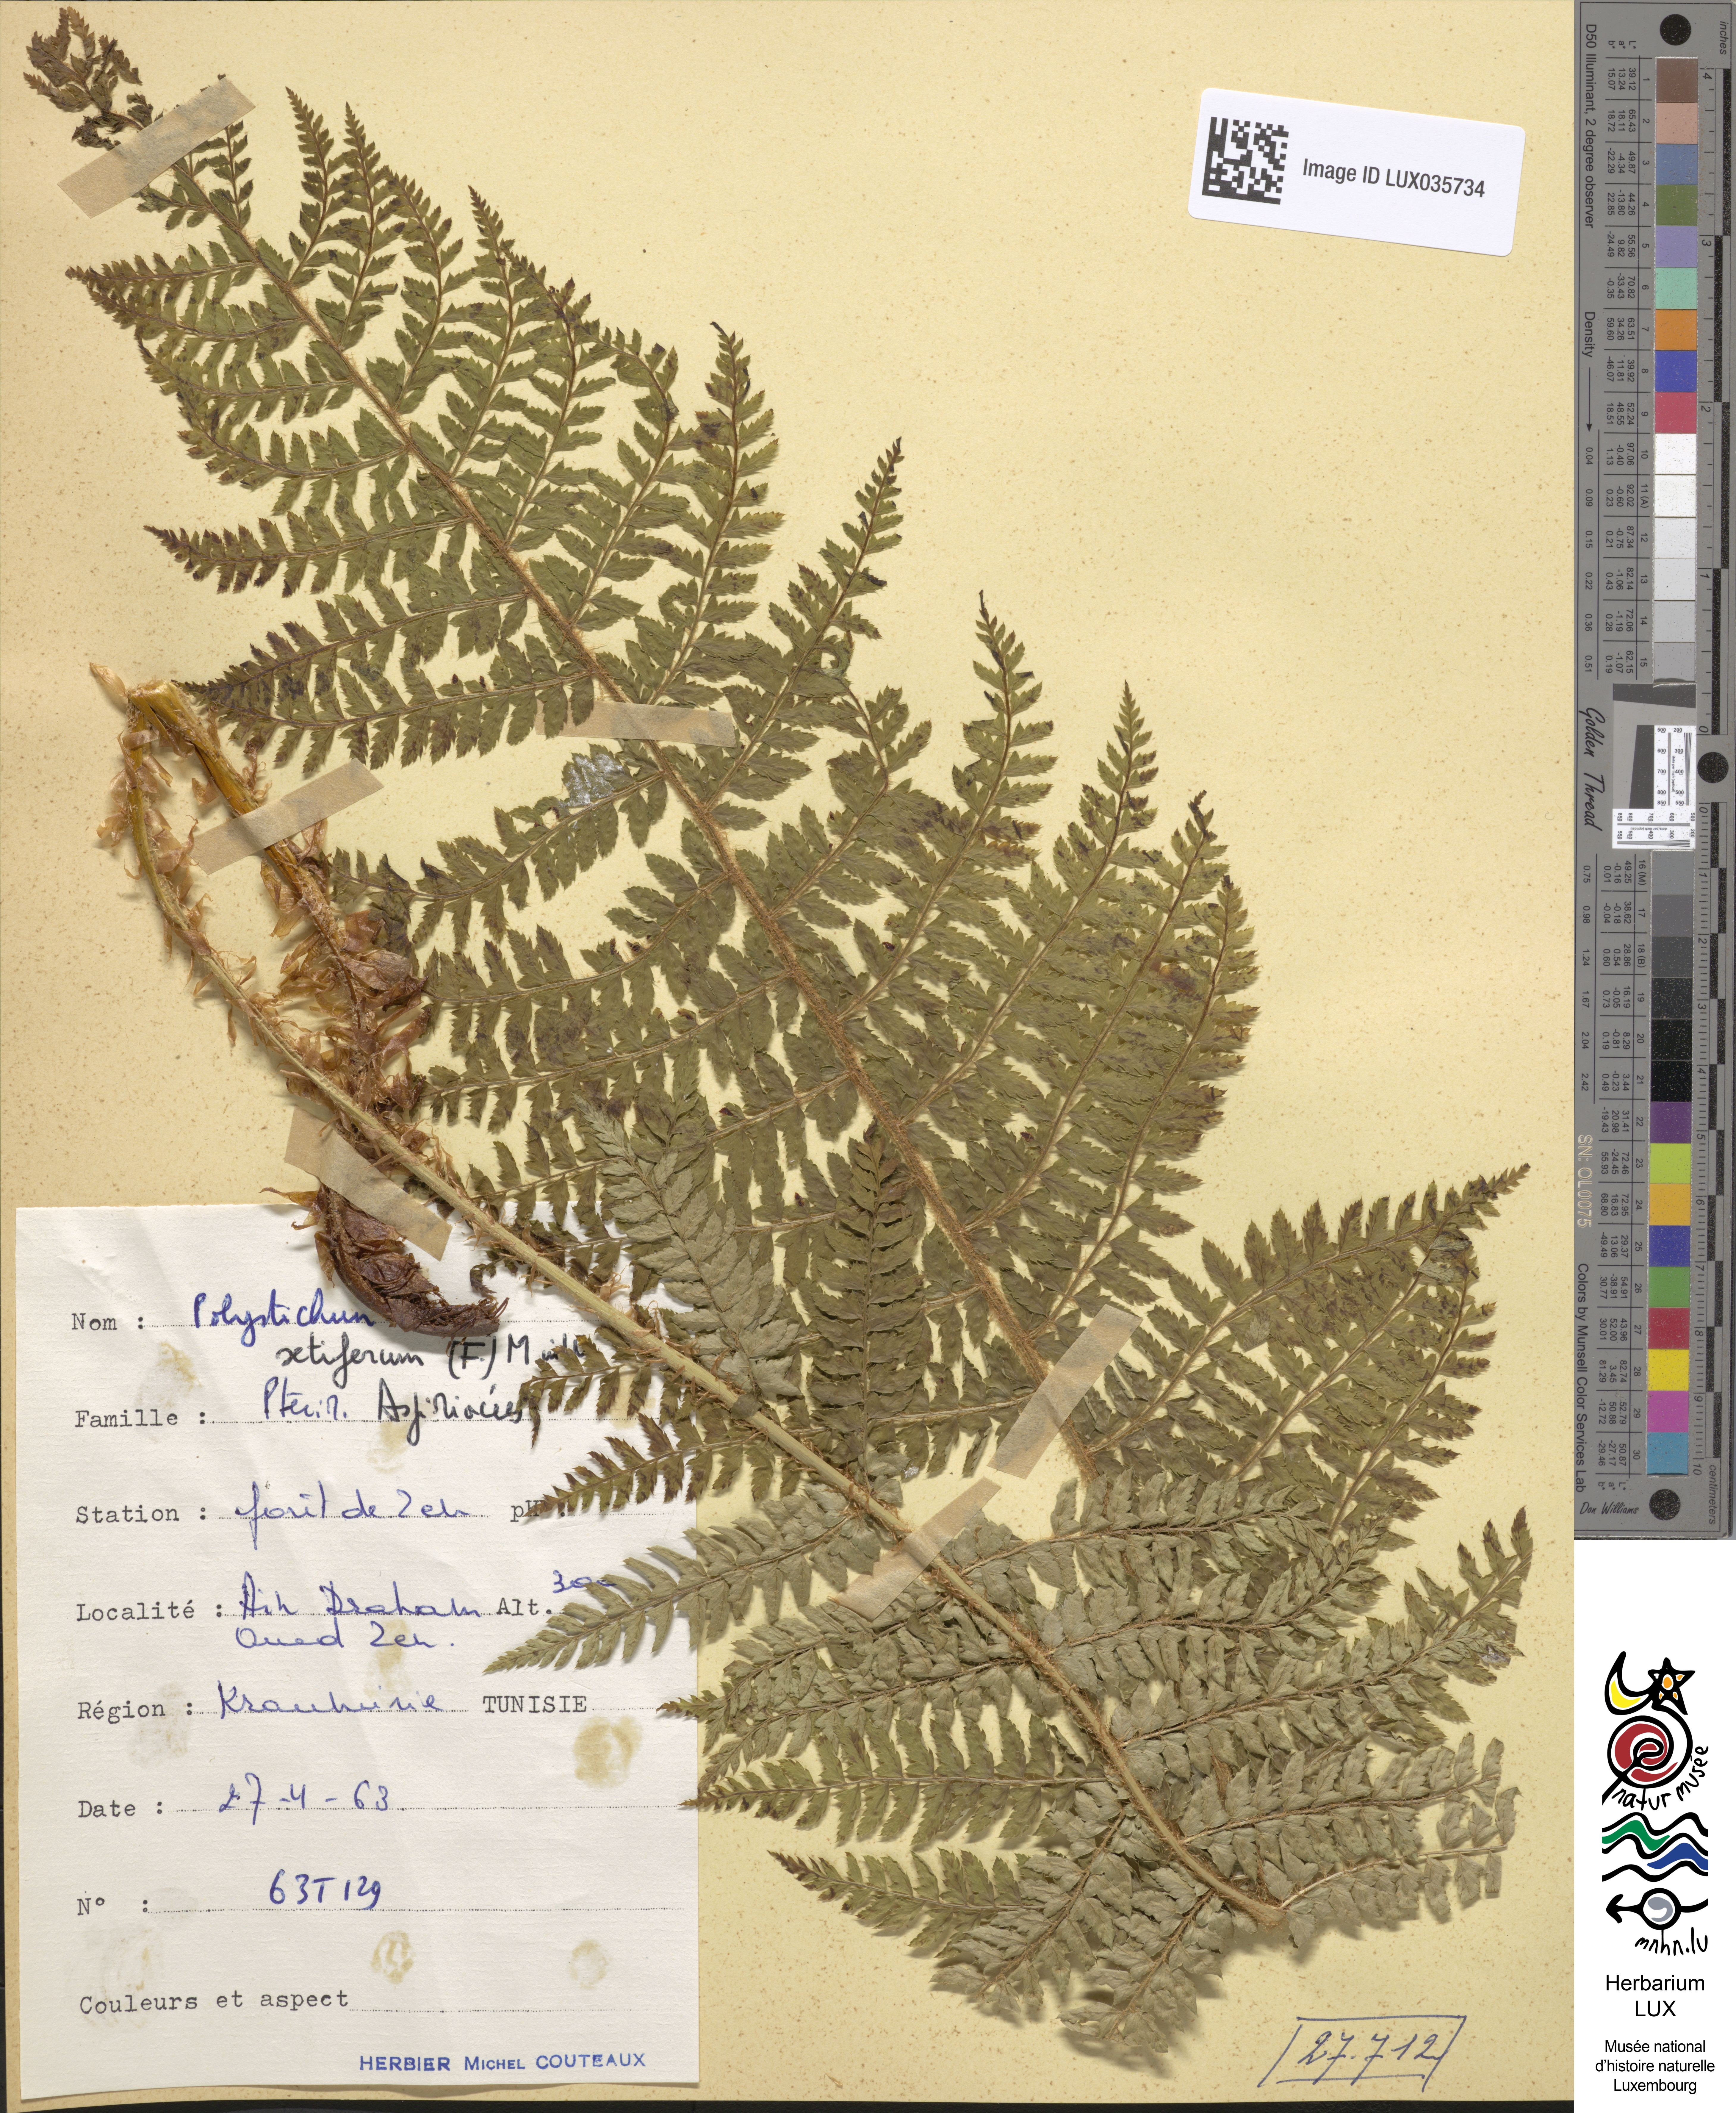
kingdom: Plantae
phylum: Tracheophyta
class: Polypodiopsida
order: Polypodiales
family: Dryopteridaceae
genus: Polystichum
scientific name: Polystichum setiferum
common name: Soft shield-fern
